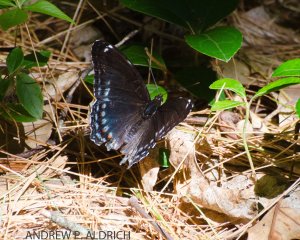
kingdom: Animalia
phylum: Arthropoda
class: Insecta
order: Lepidoptera
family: Nymphalidae
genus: Limenitis
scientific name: Limenitis astyanax
